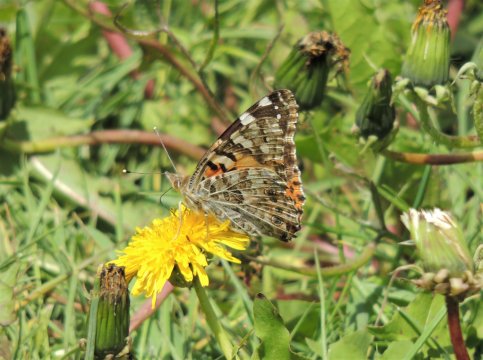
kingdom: Animalia
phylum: Arthropoda
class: Insecta
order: Lepidoptera
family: Nymphalidae
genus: Vanessa
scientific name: Vanessa cardui
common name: Painted Lady
